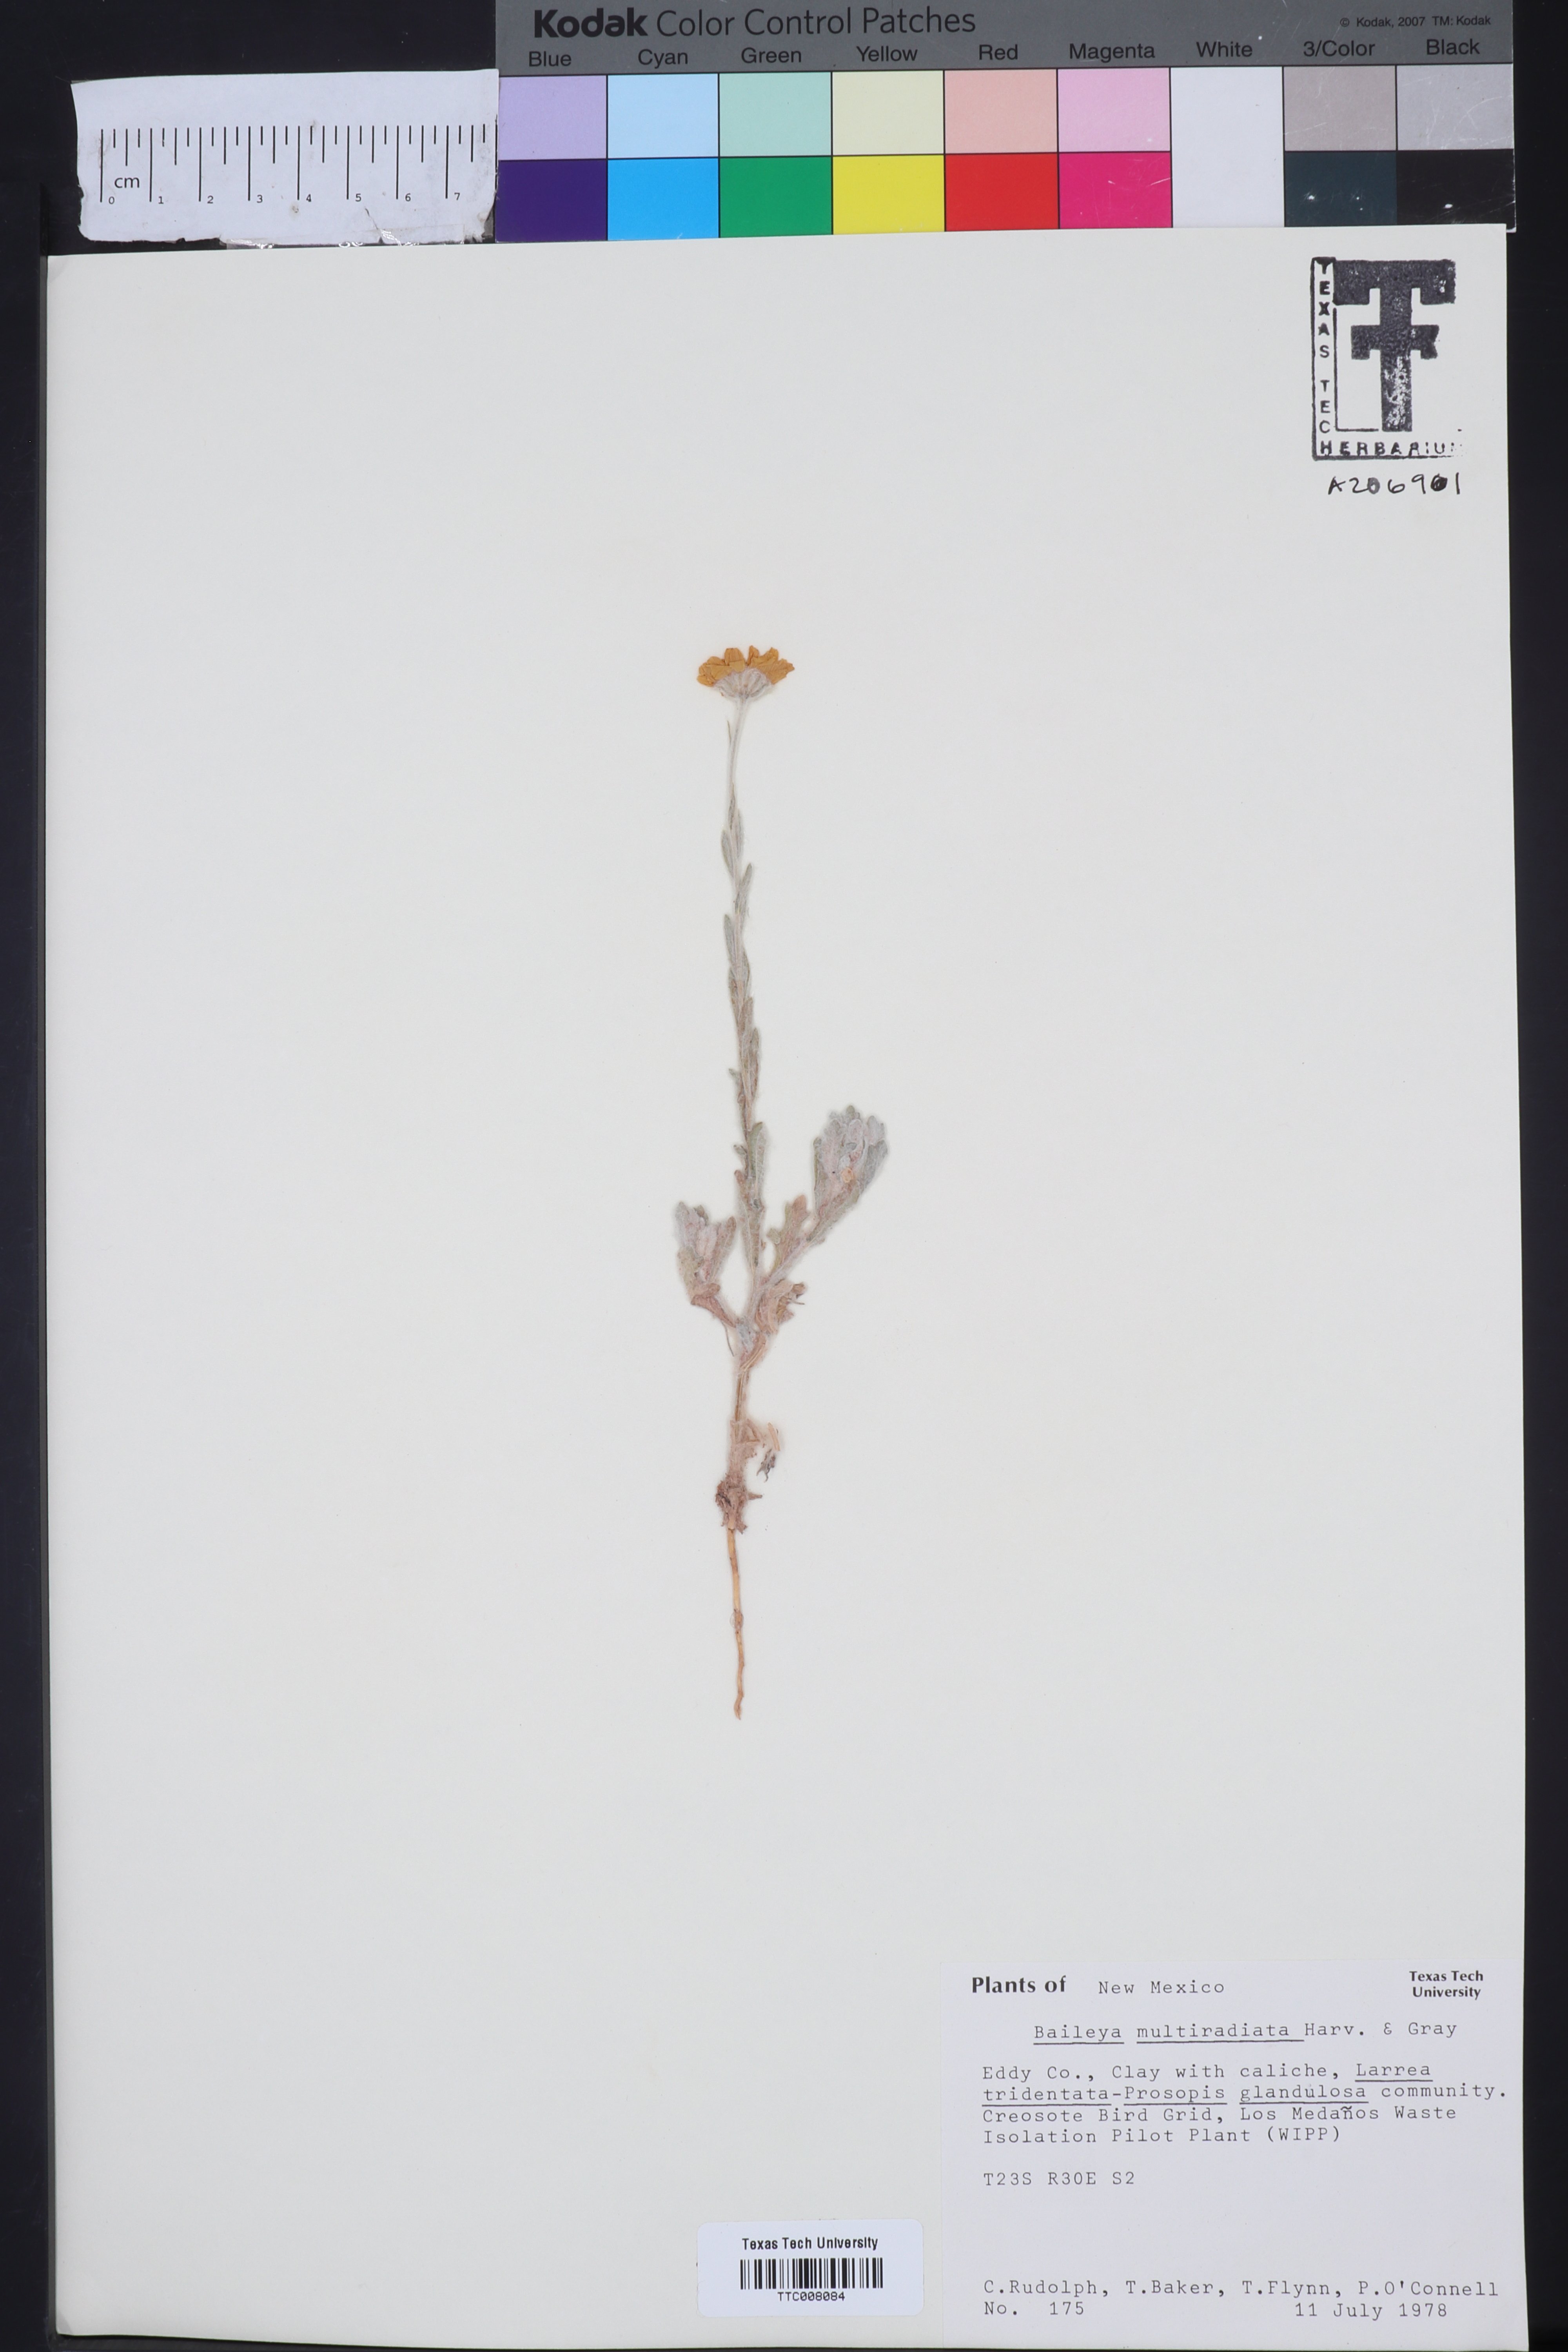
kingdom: Plantae
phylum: Tracheophyta
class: Magnoliopsida
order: Asterales
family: Asteraceae
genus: Baileya
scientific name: Baileya multiradiata
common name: Desert-marigold
